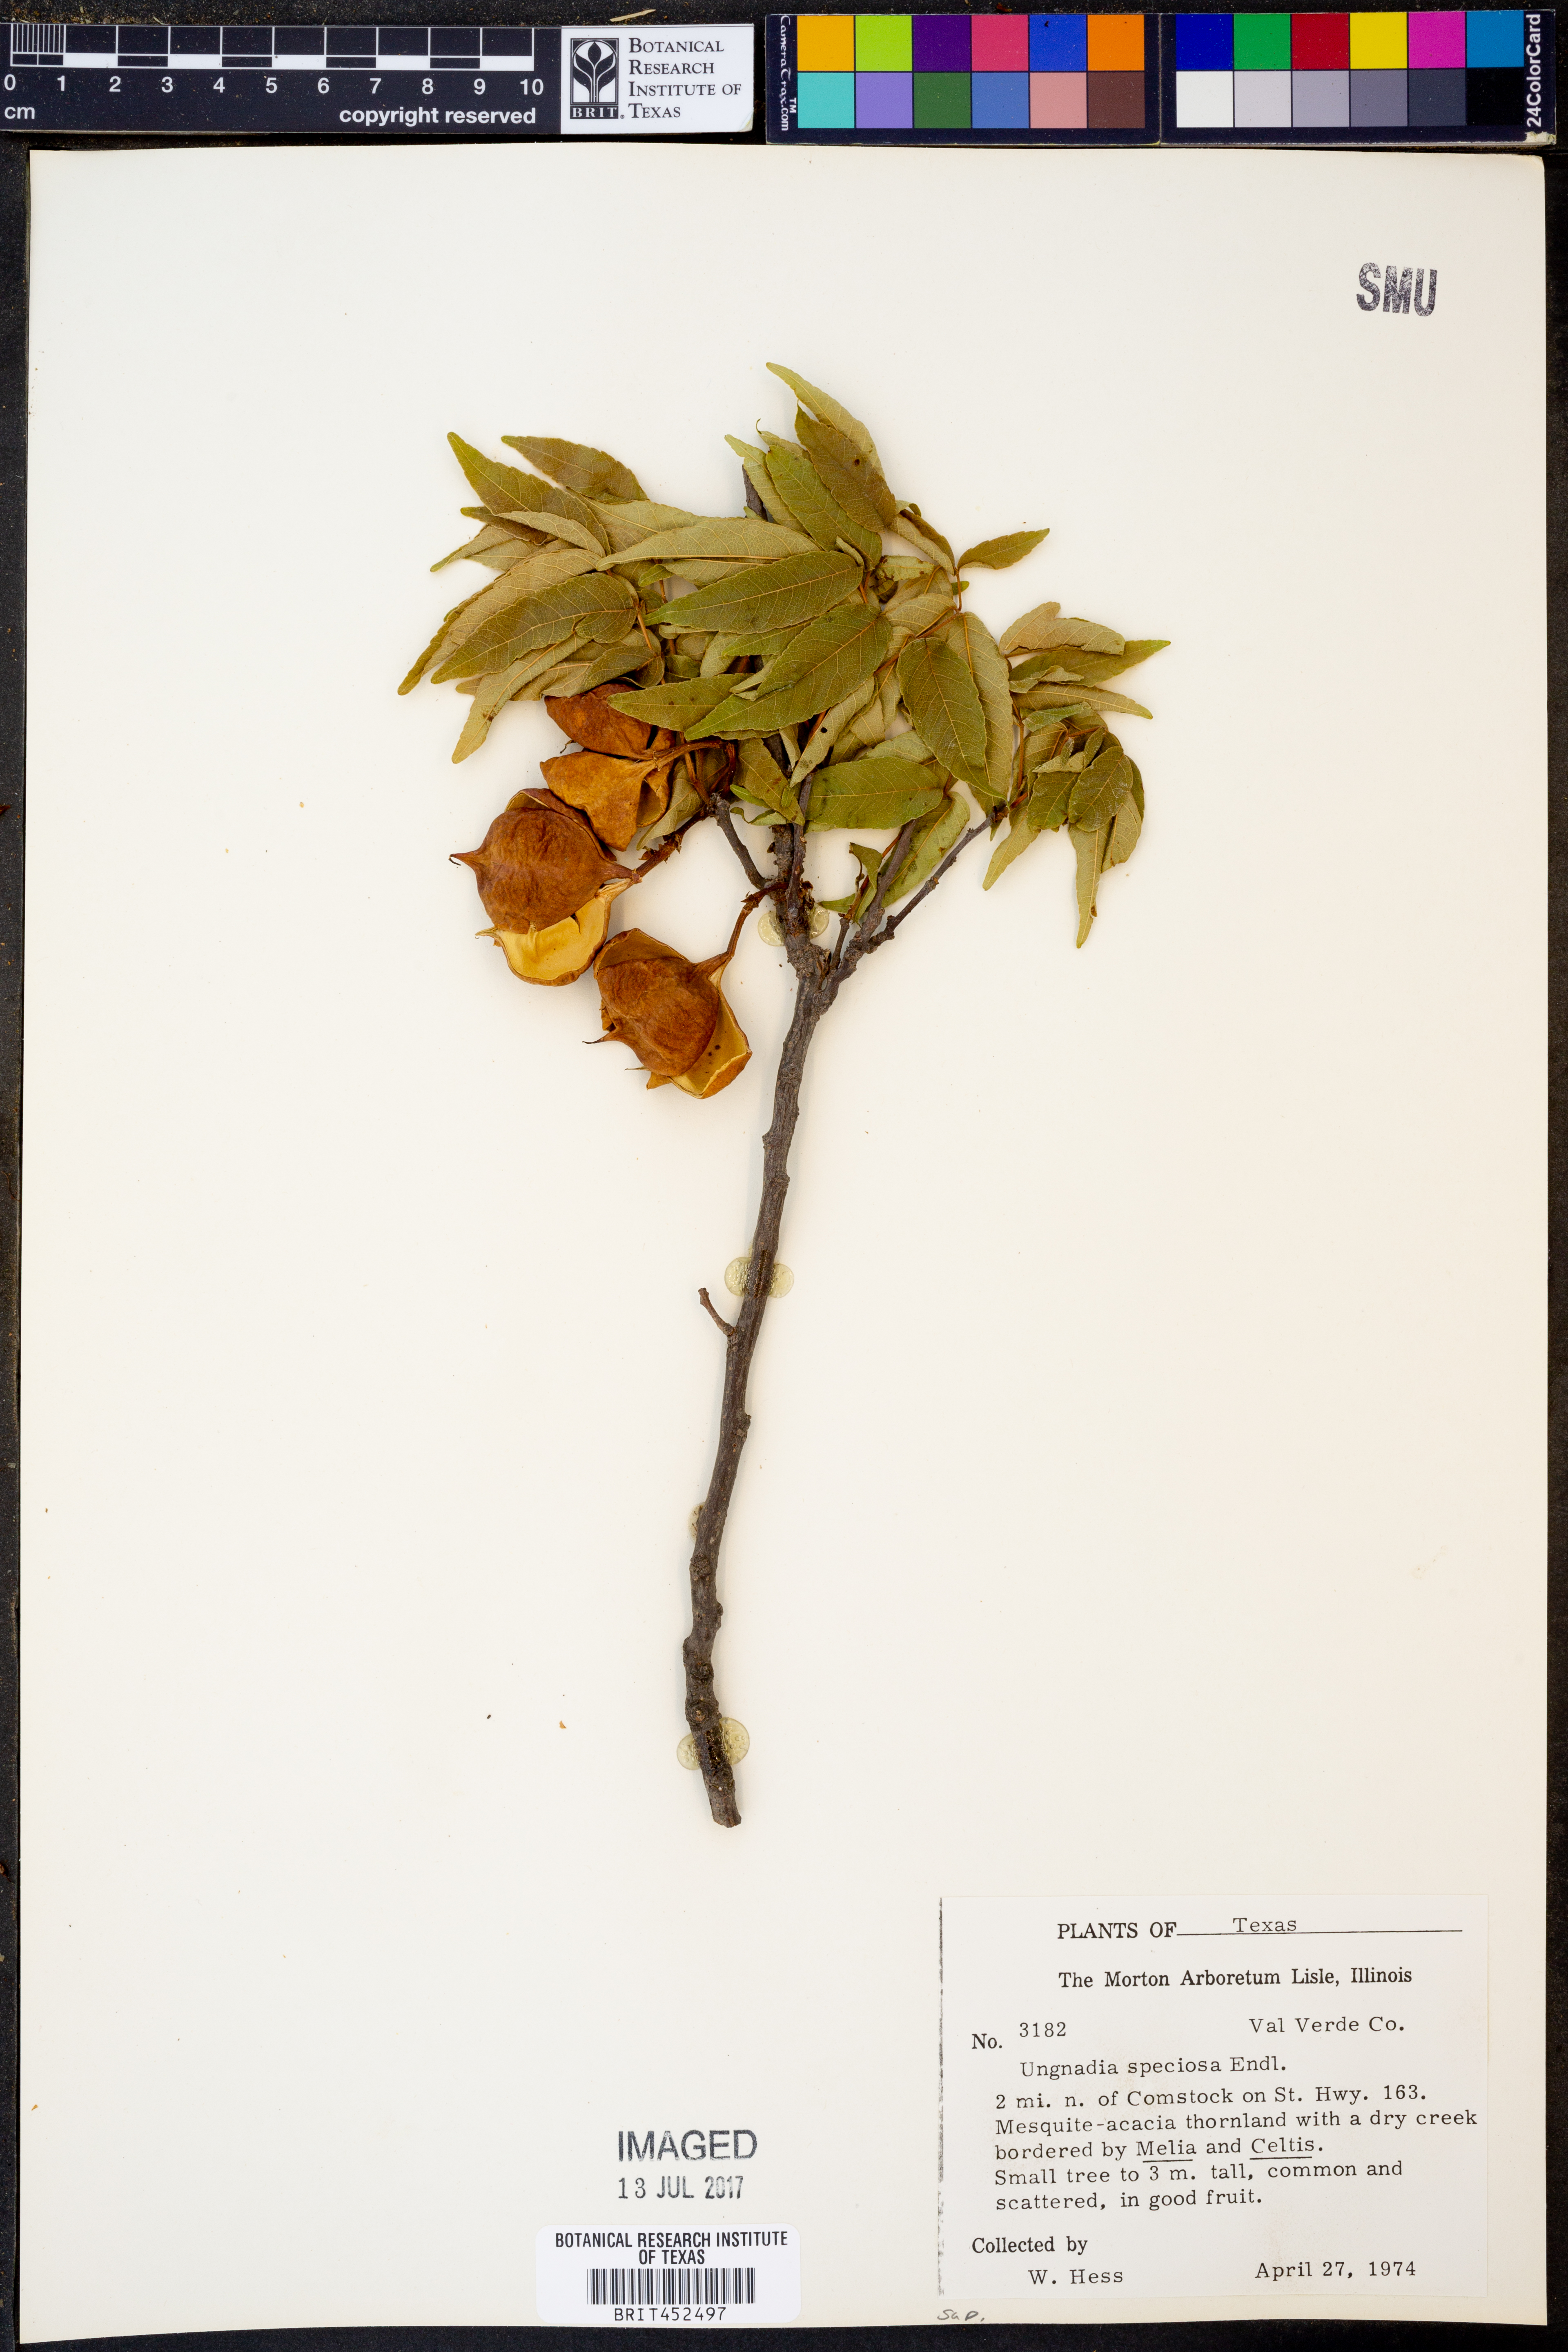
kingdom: Plantae
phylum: Tracheophyta
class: Magnoliopsida
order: Sapindales
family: Sapindaceae
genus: Ungnadia
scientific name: Ungnadia speciosa
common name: Texas-buckeye
